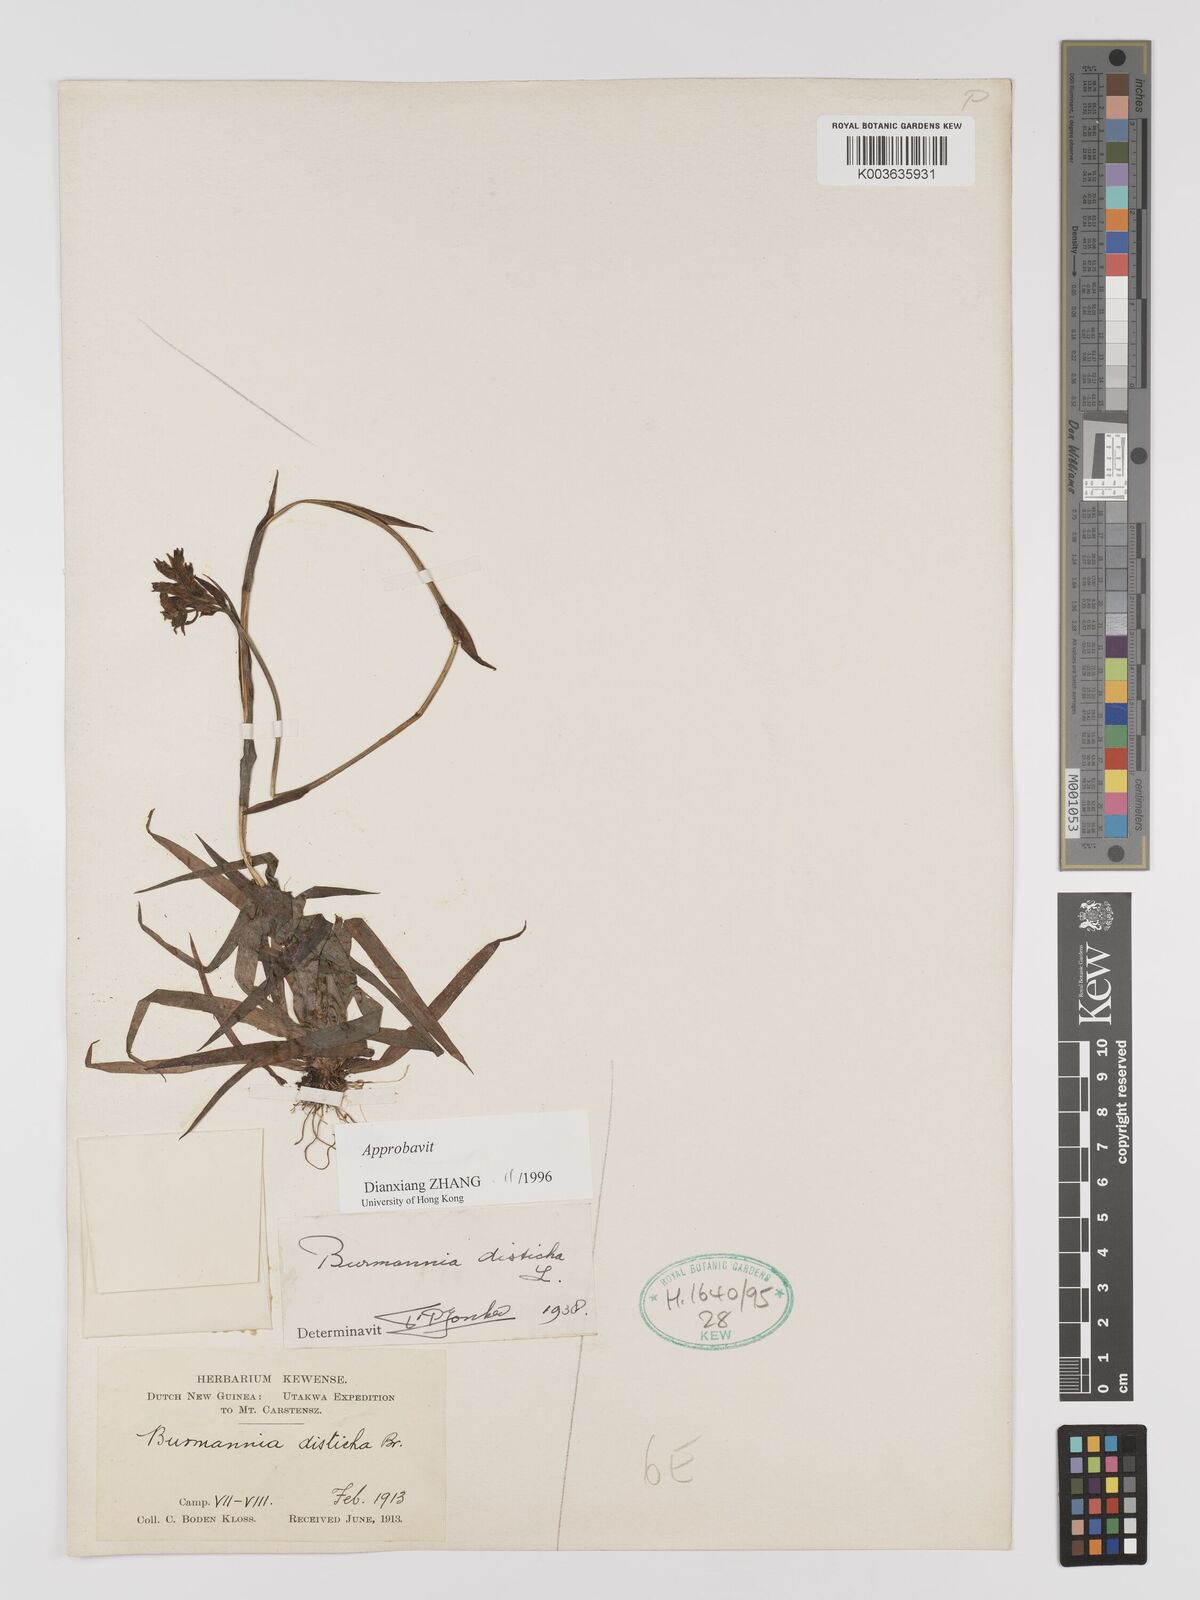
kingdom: Plantae
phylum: Tracheophyta
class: Liliopsida
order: Dioscoreales
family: Burmanniaceae
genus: Burmannia
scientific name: Burmannia disticha
